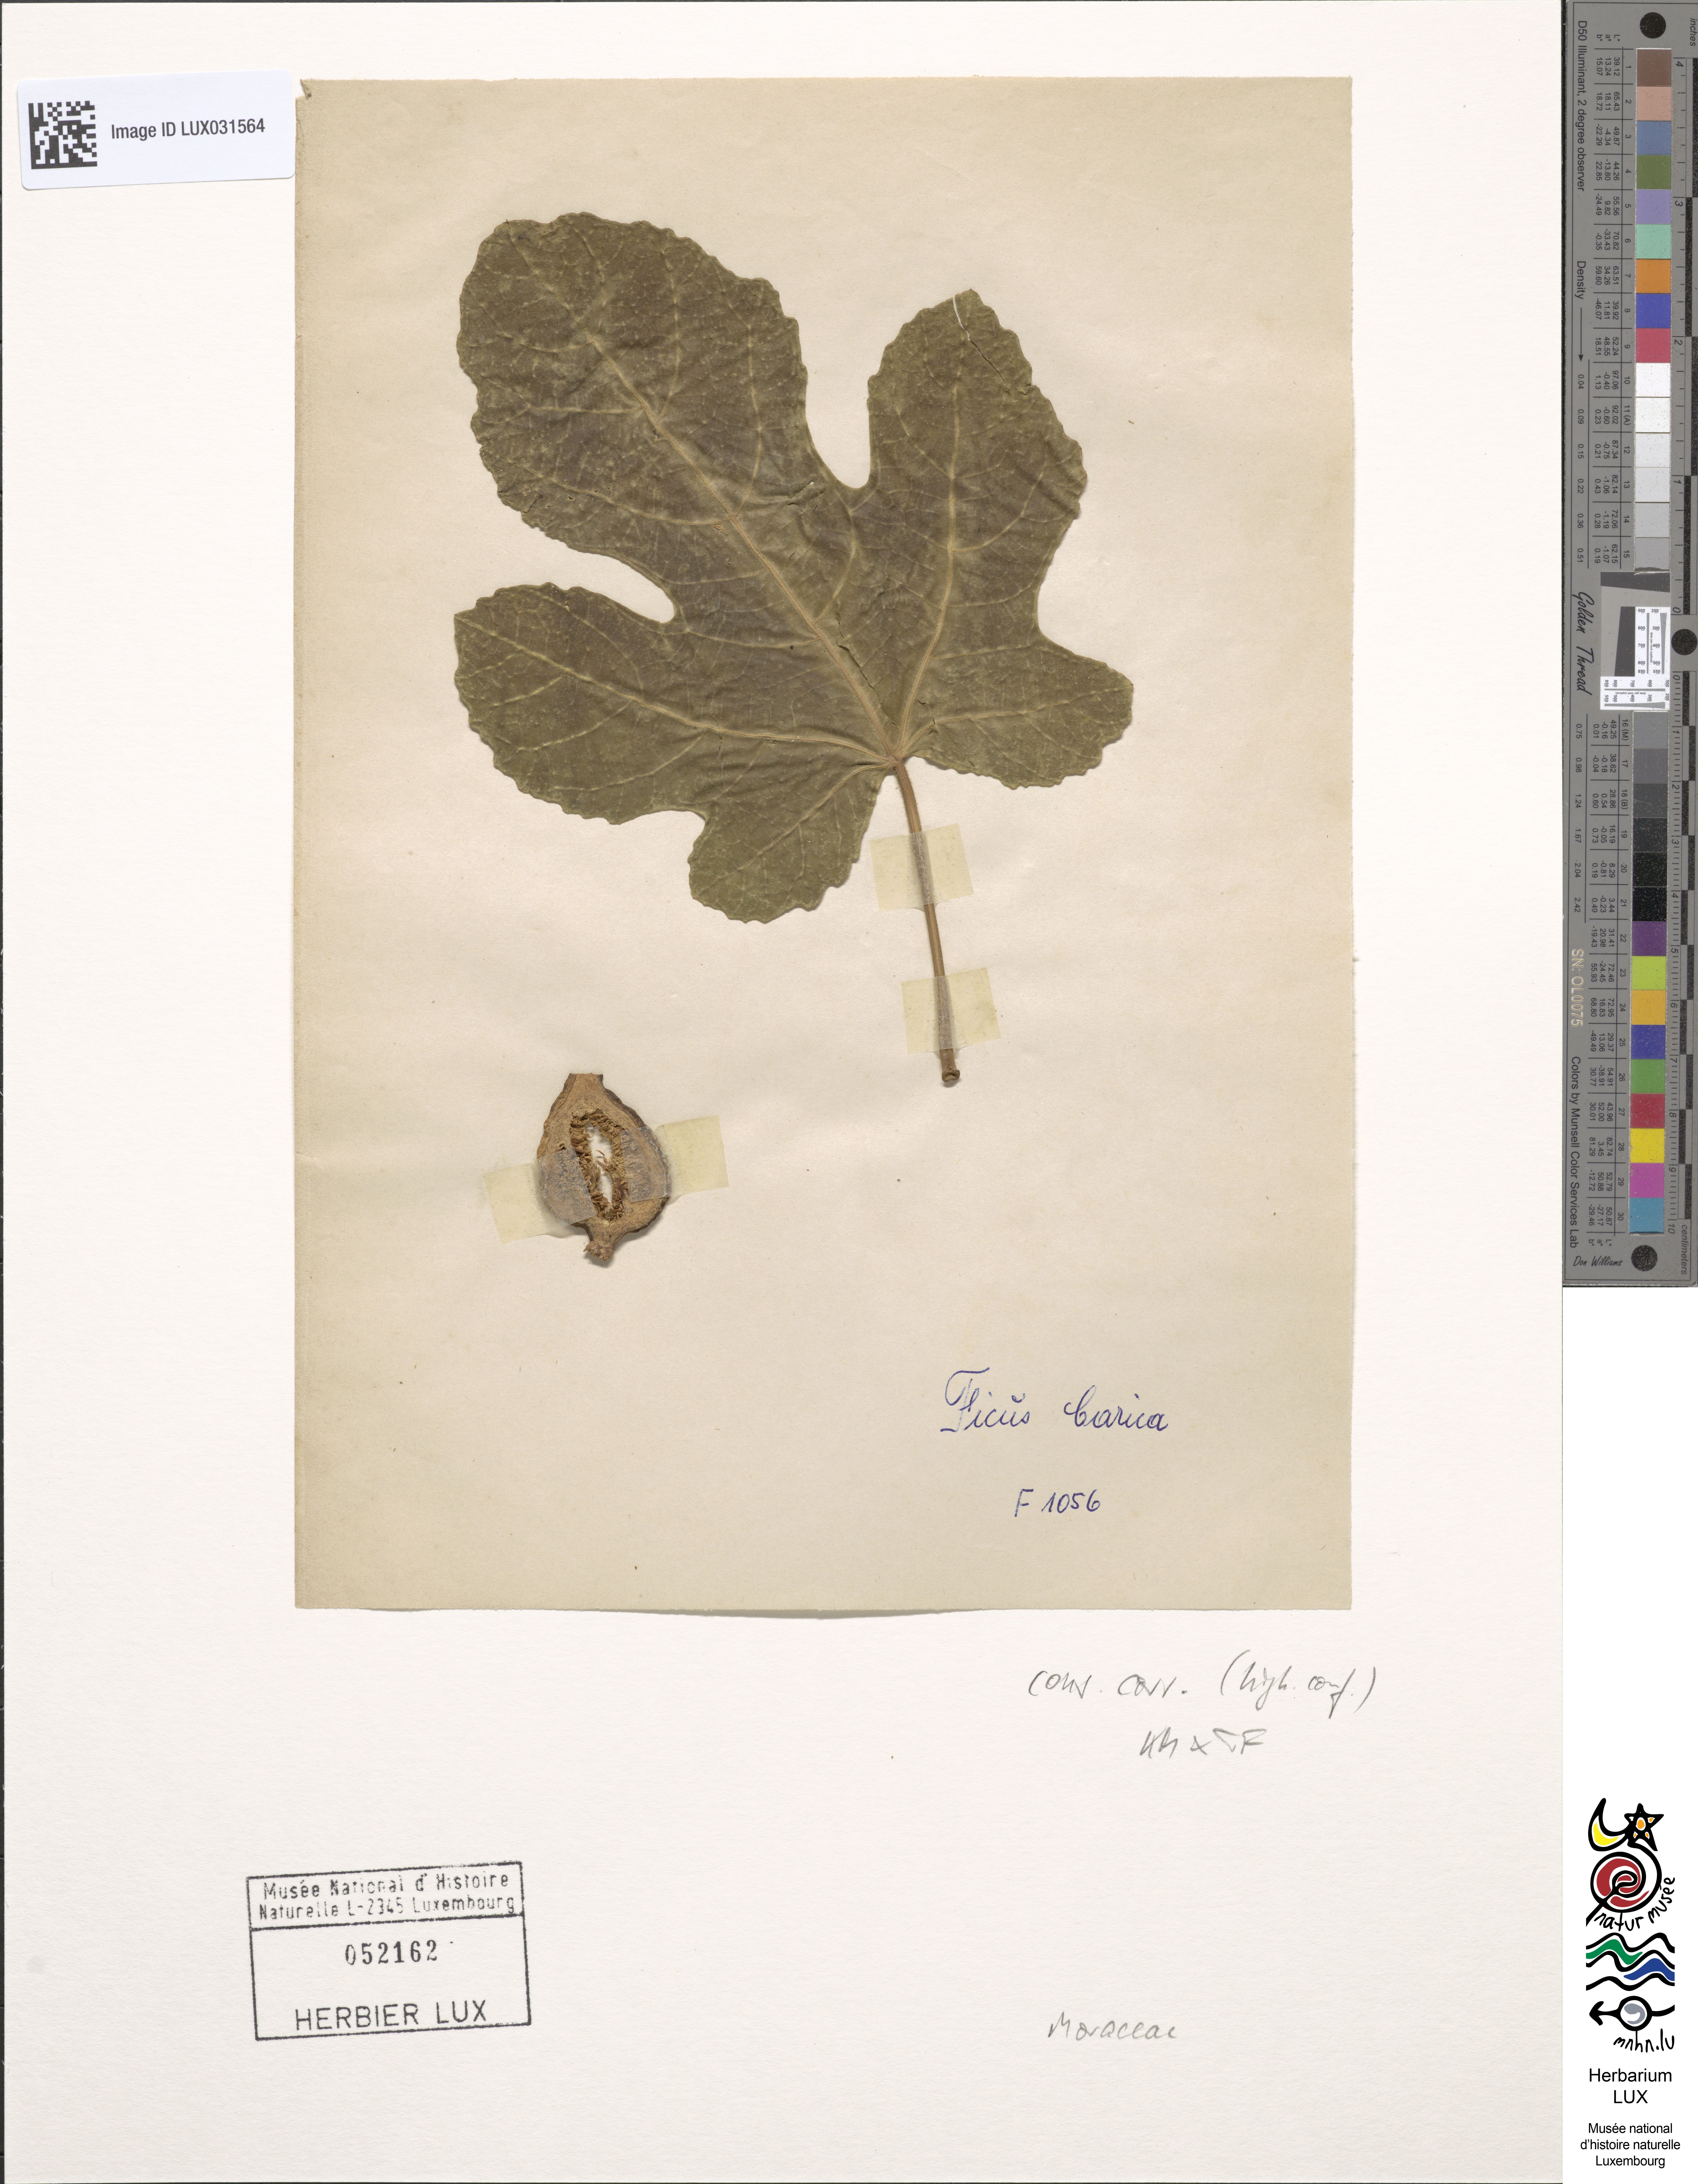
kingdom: Plantae
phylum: Tracheophyta
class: Magnoliopsida
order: Rosales
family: Moraceae
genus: Ficus
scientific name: Ficus carica
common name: Fig
